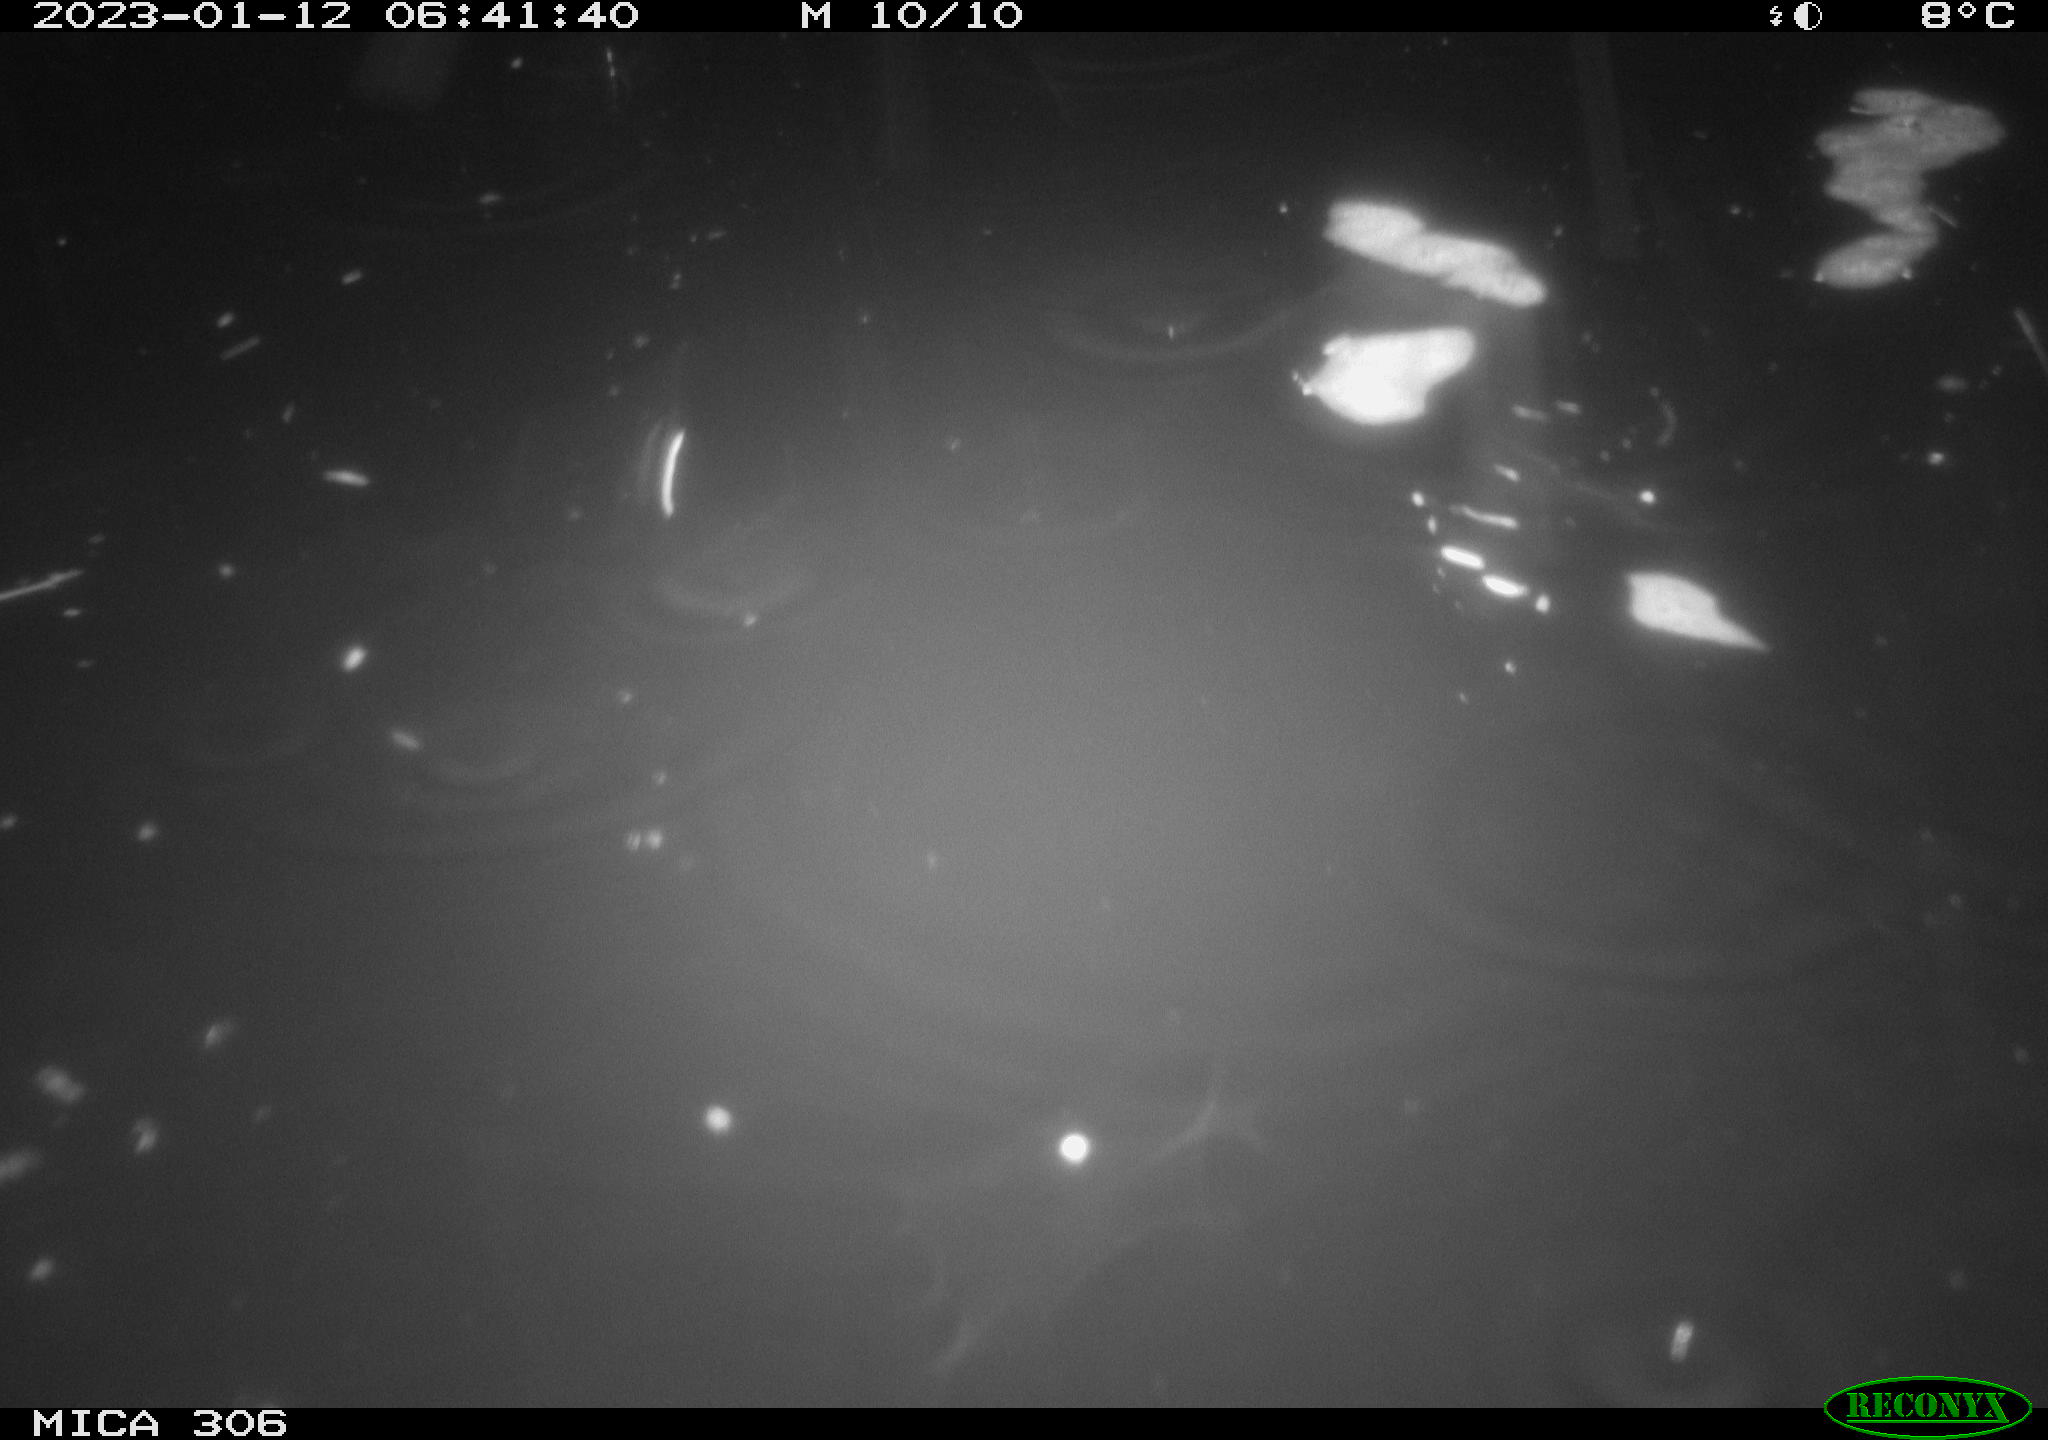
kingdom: Animalia
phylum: Chordata
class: Mammalia
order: Rodentia
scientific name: Rodentia
